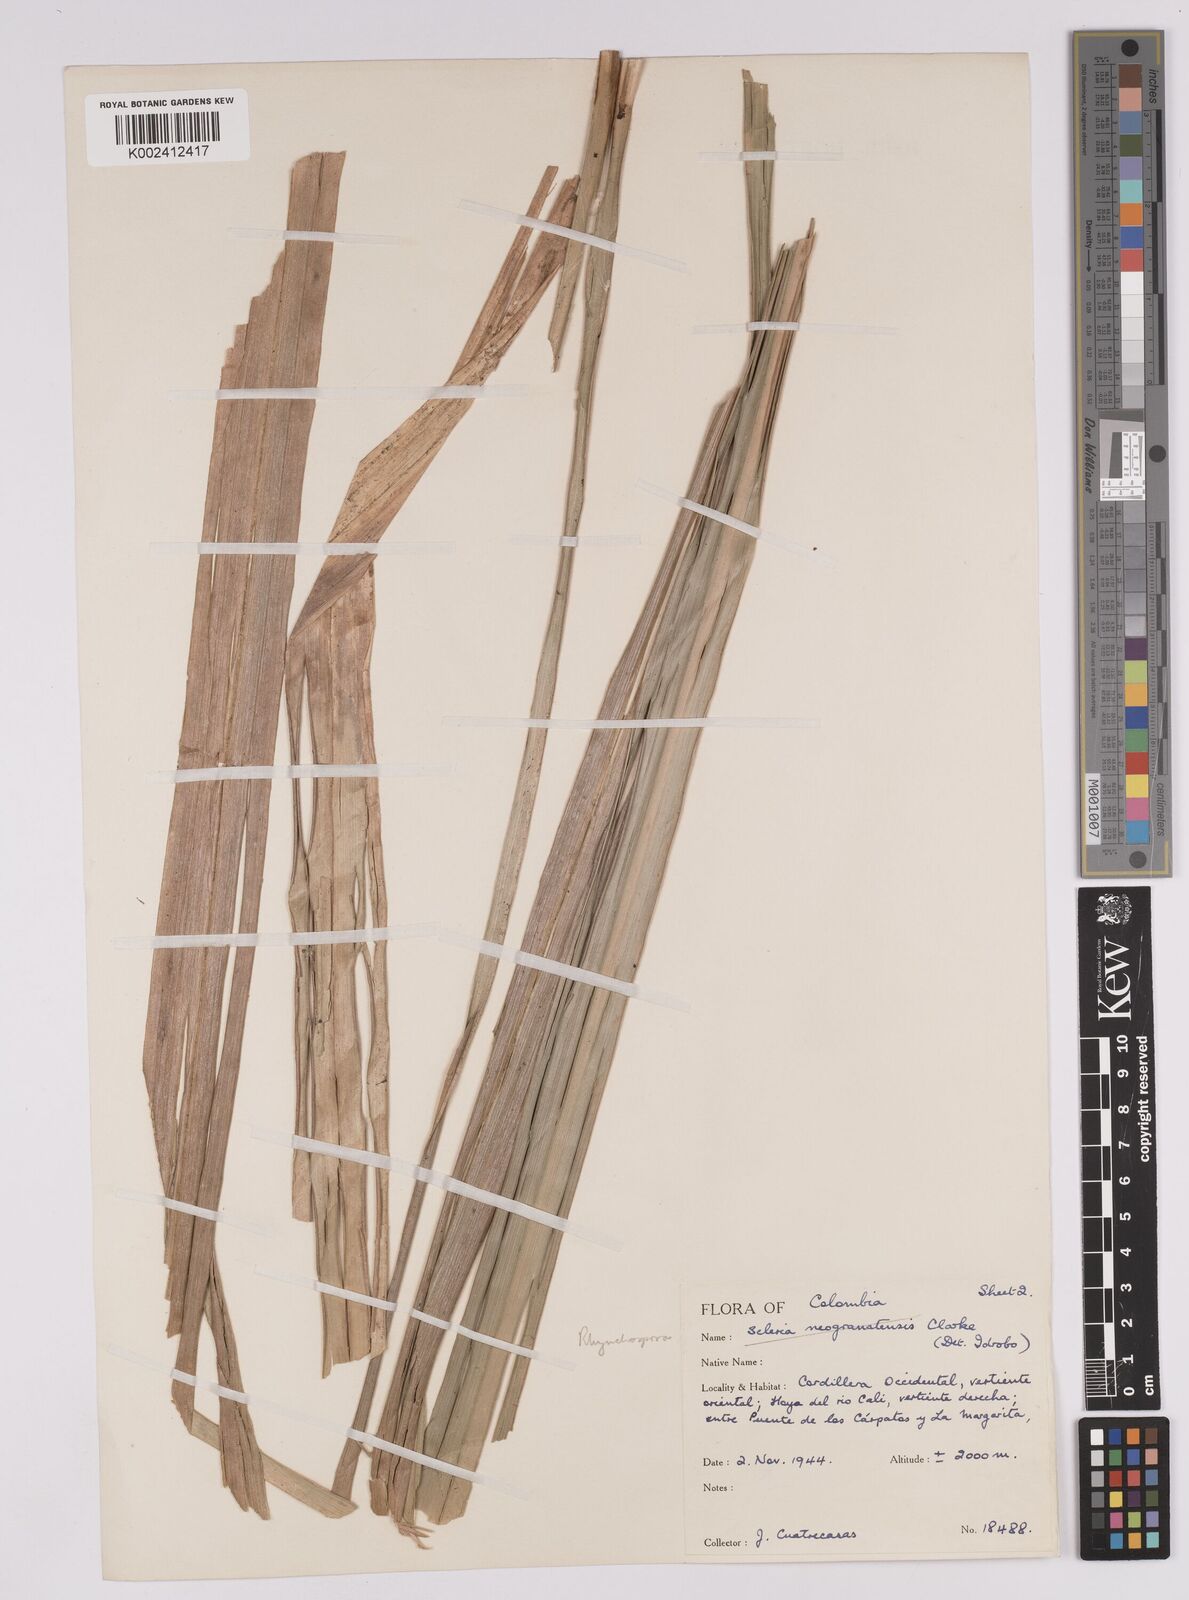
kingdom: Plantae
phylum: Tracheophyta
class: Liliopsida
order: Poales
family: Cyperaceae
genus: Rhynchospora
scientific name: Rhynchospora hieronymi
